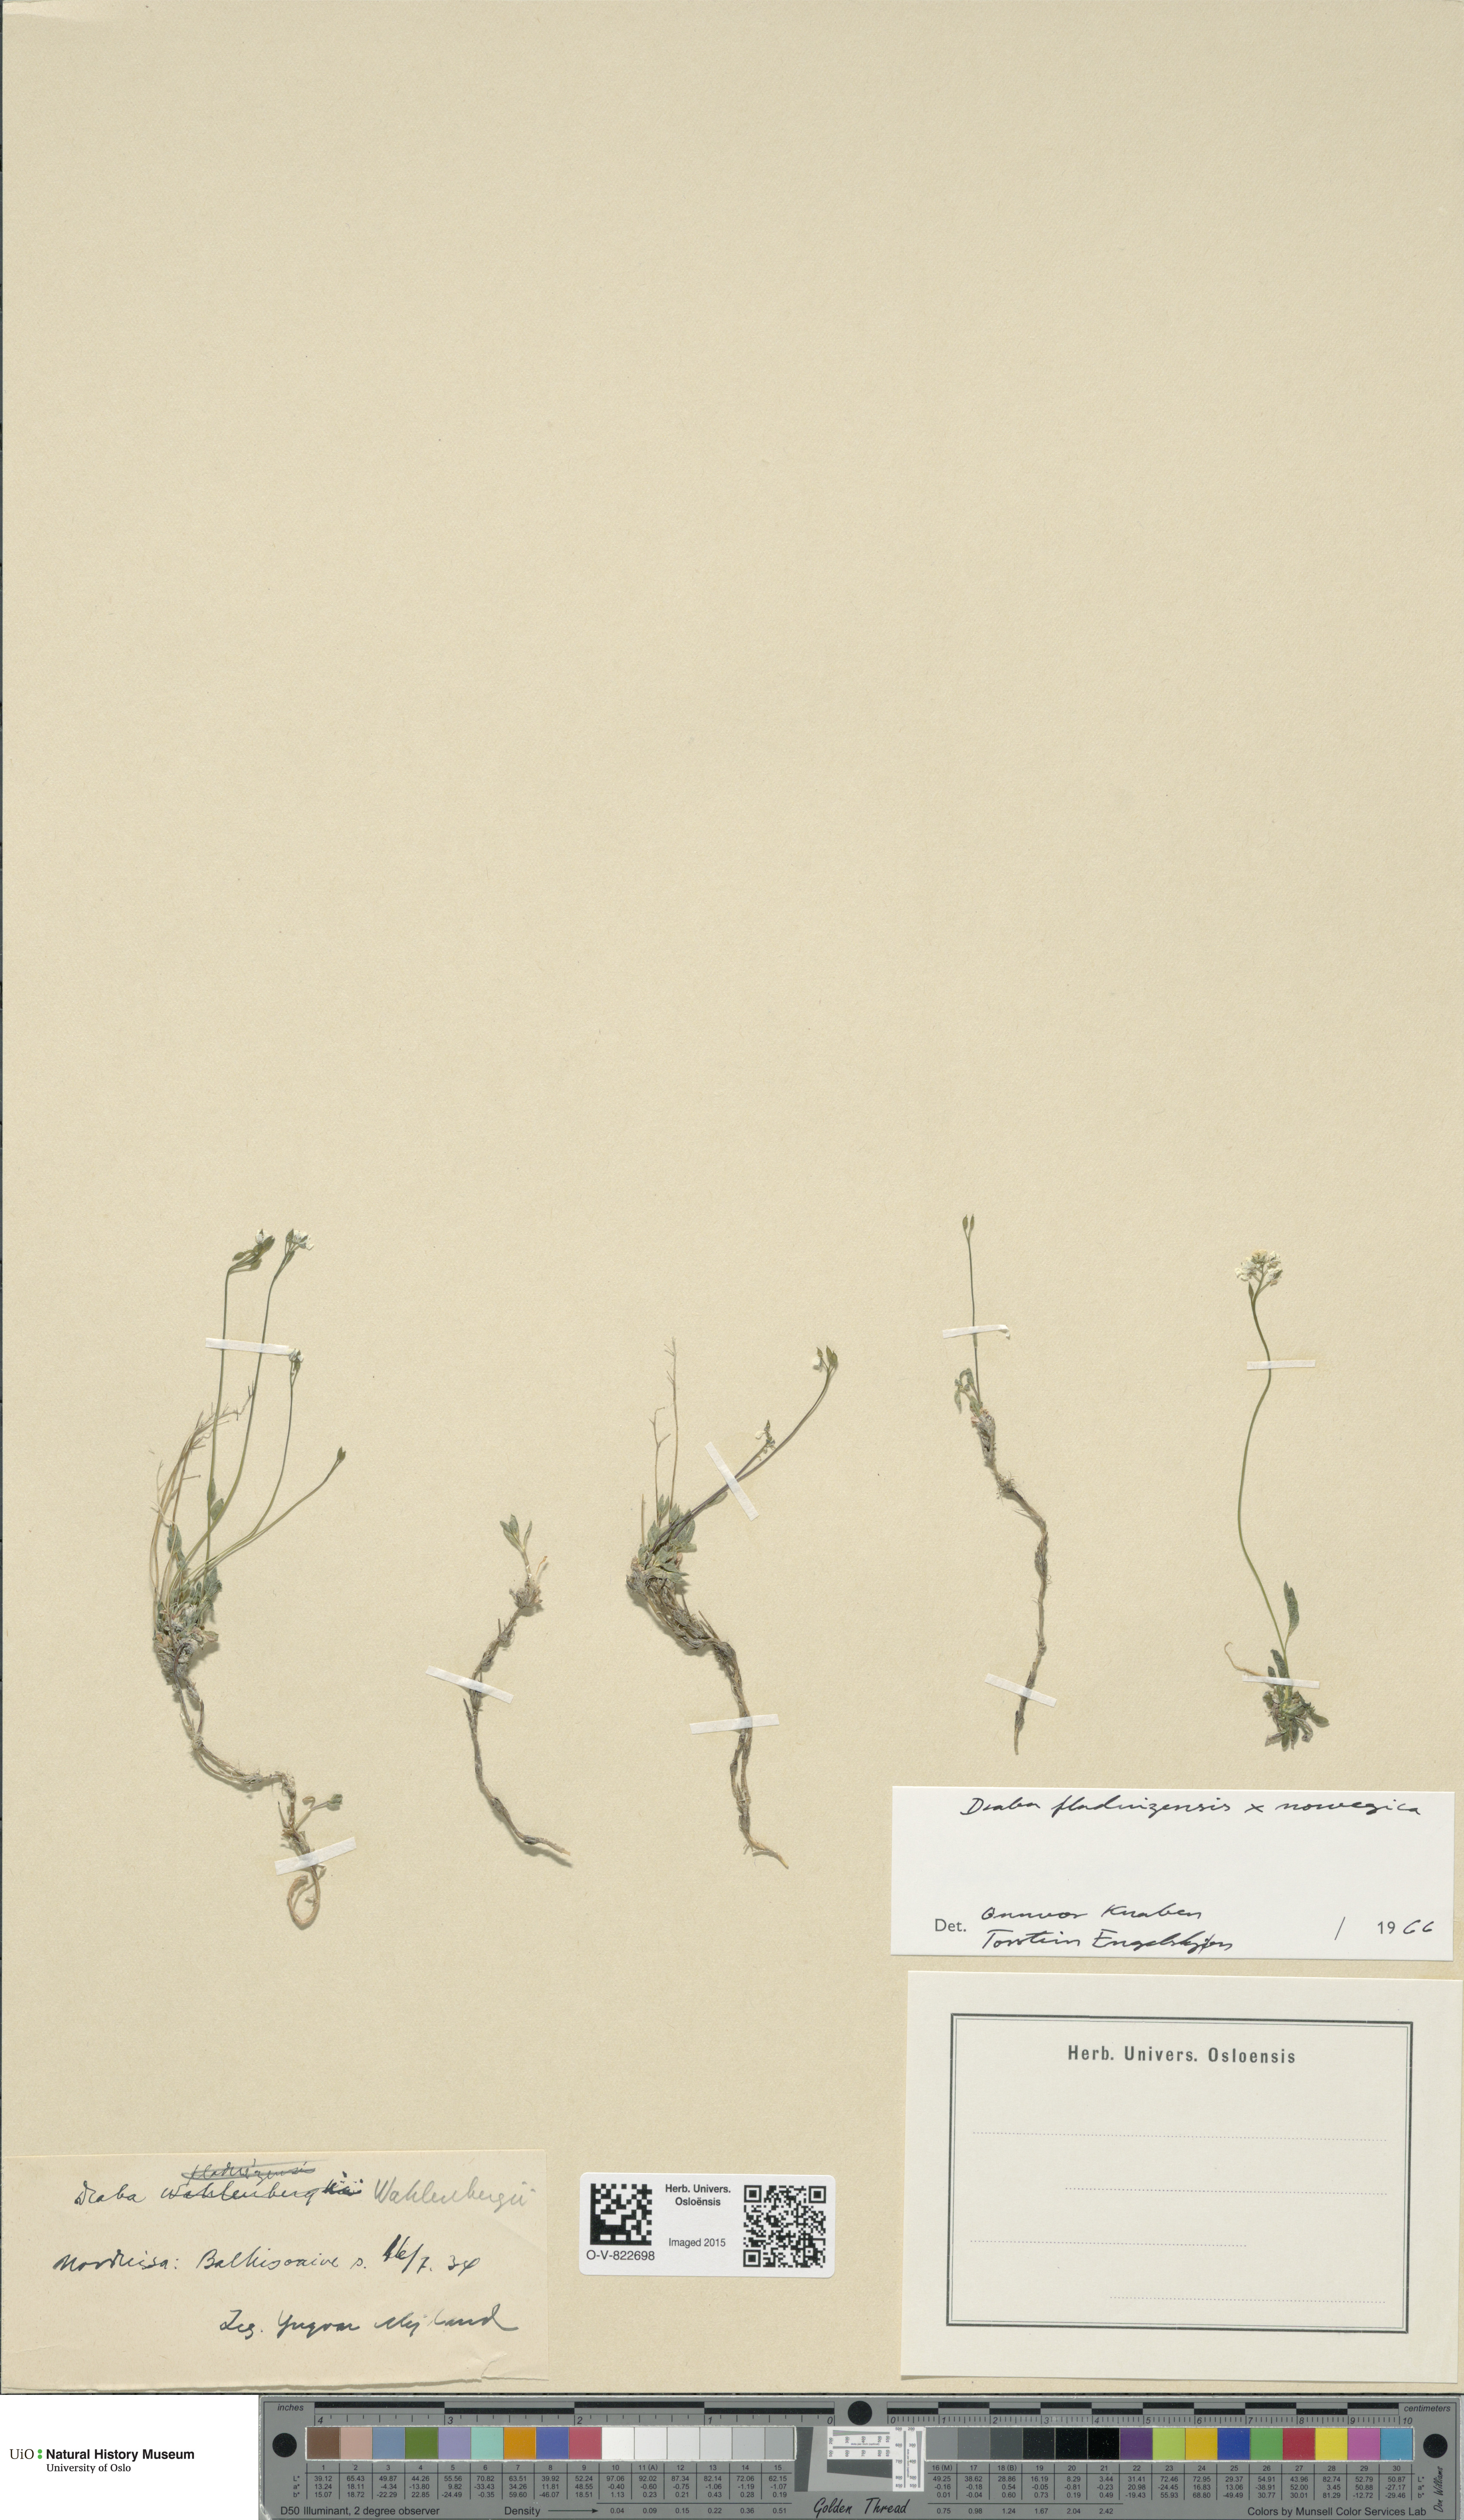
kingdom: Plantae
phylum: Tracheophyta
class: Magnoliopsida
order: Brassicales
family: Brassicaceae
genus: Draba
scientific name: Draba
